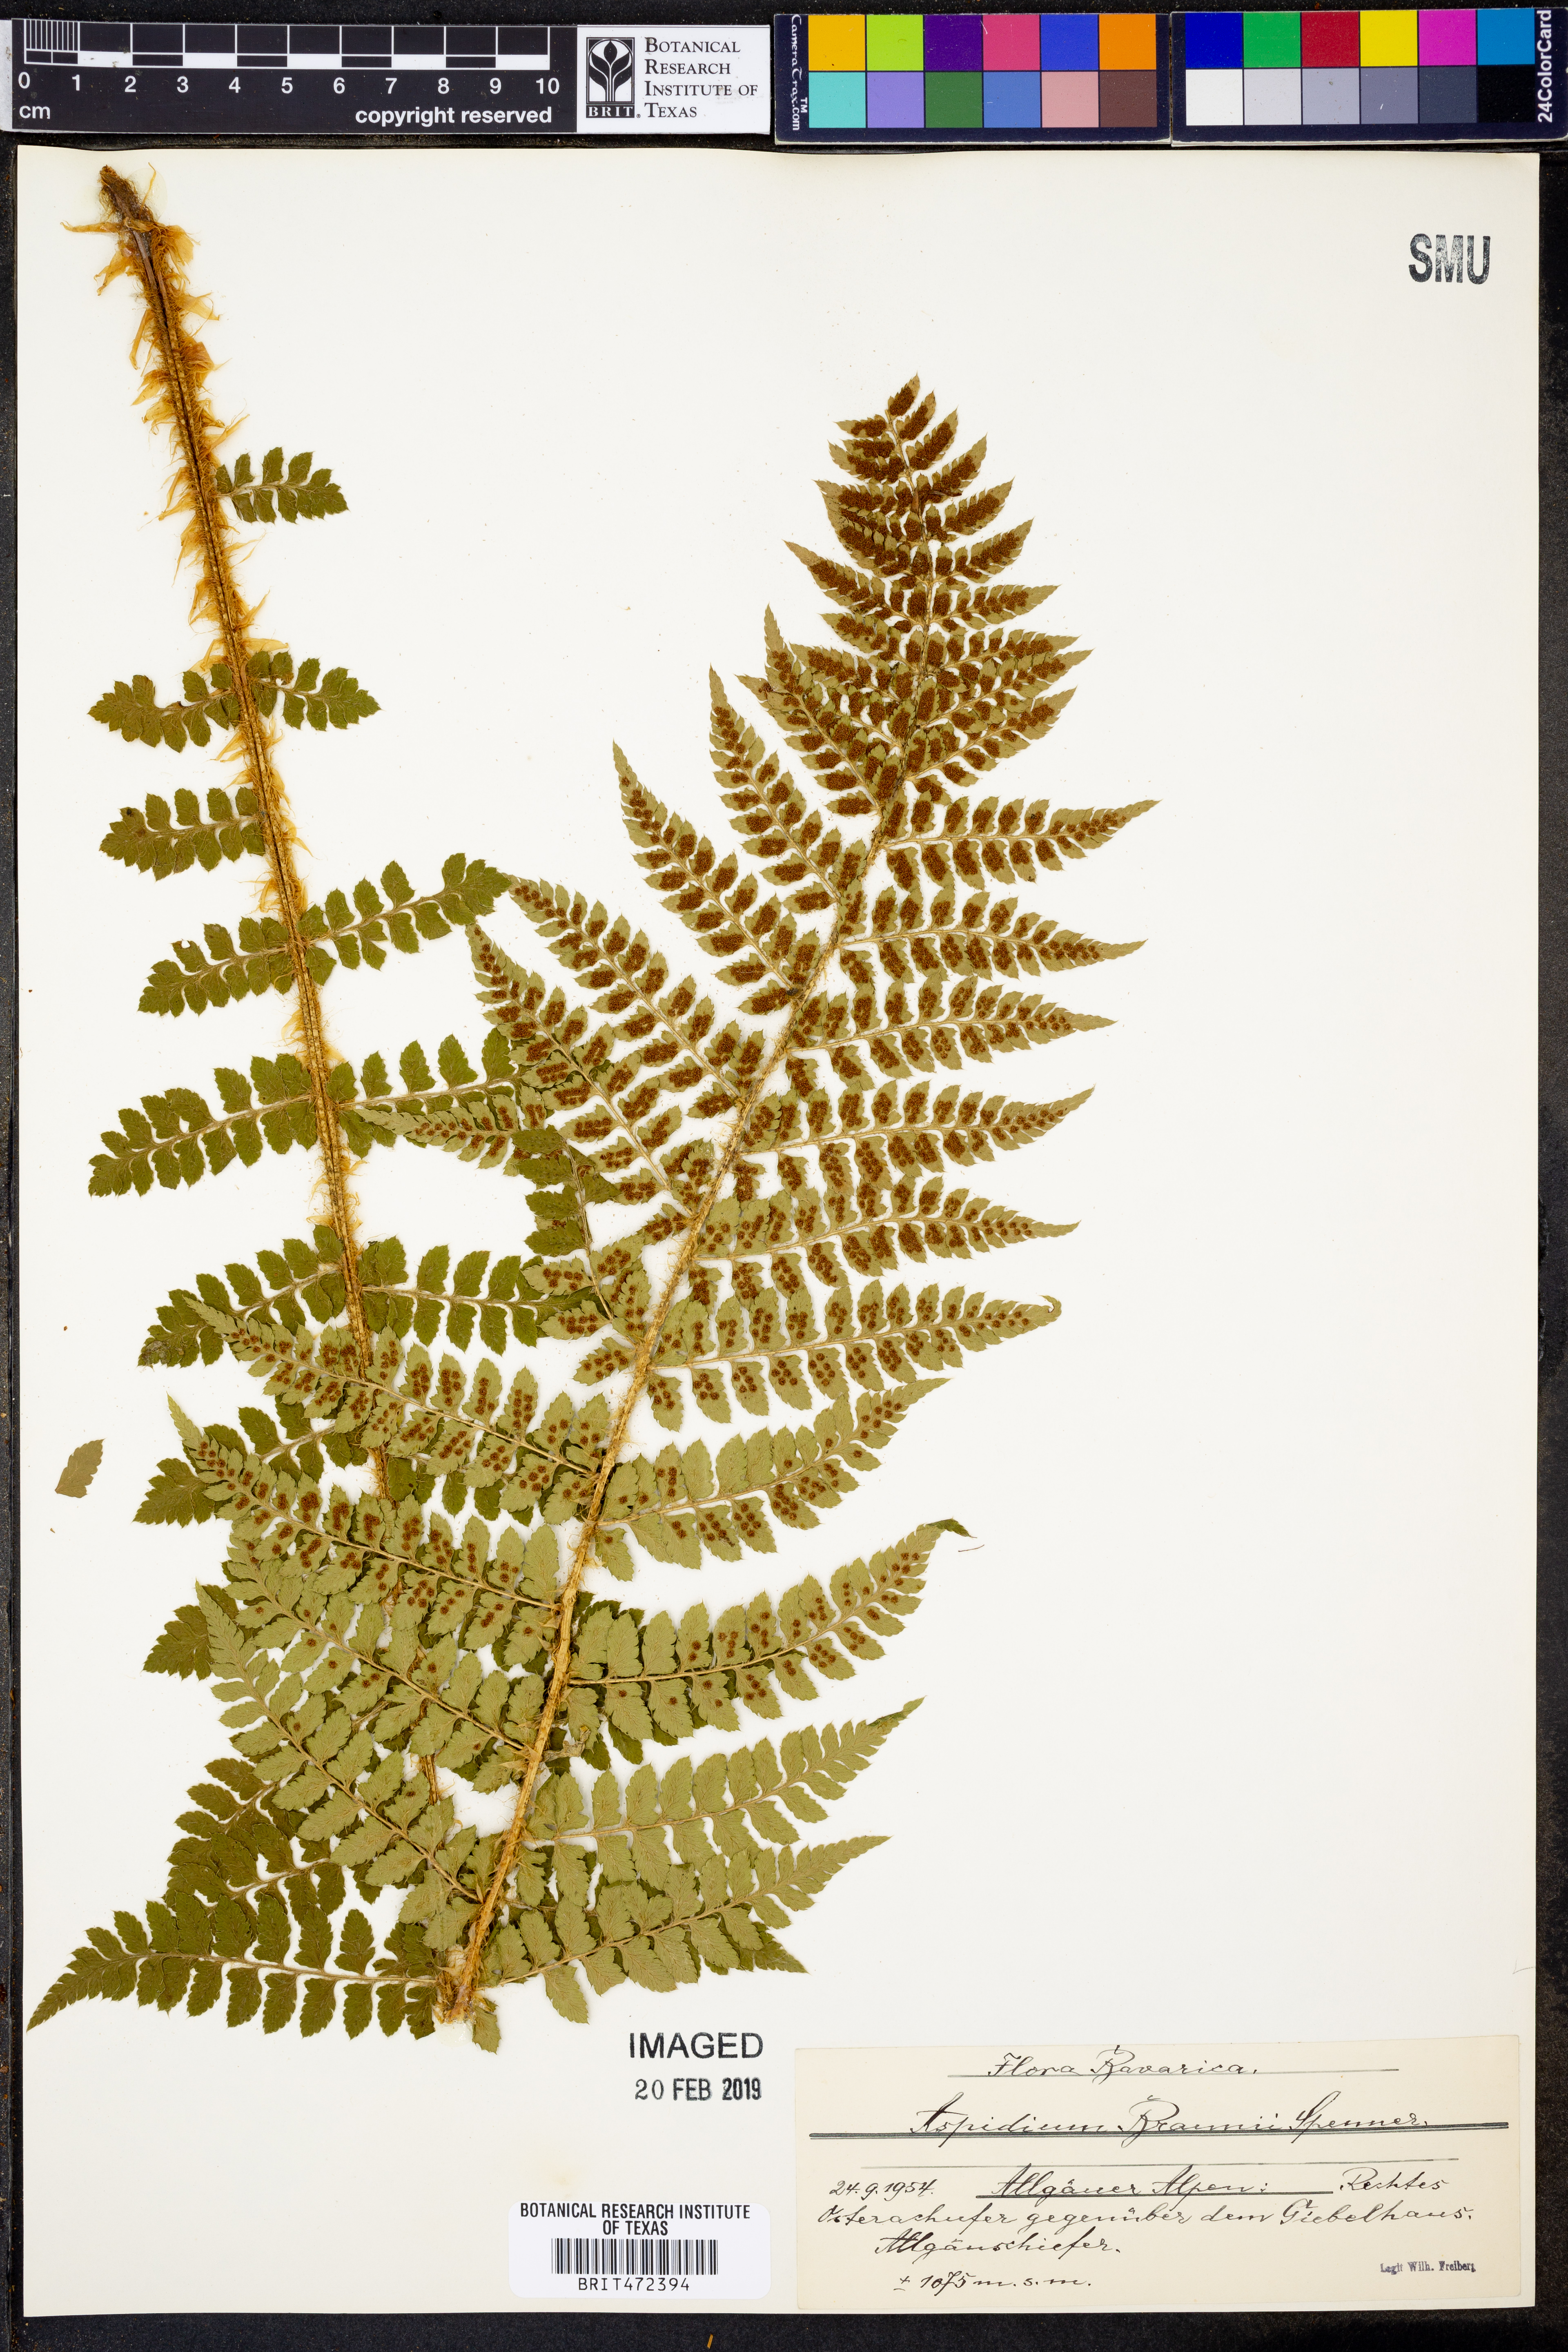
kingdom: Plantae
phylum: Tracheophyta
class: Polypodiopsida
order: Polypodiales
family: Dryopteridaceae
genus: Polystichum
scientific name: Polystichum braunii
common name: Braun's holly fern
